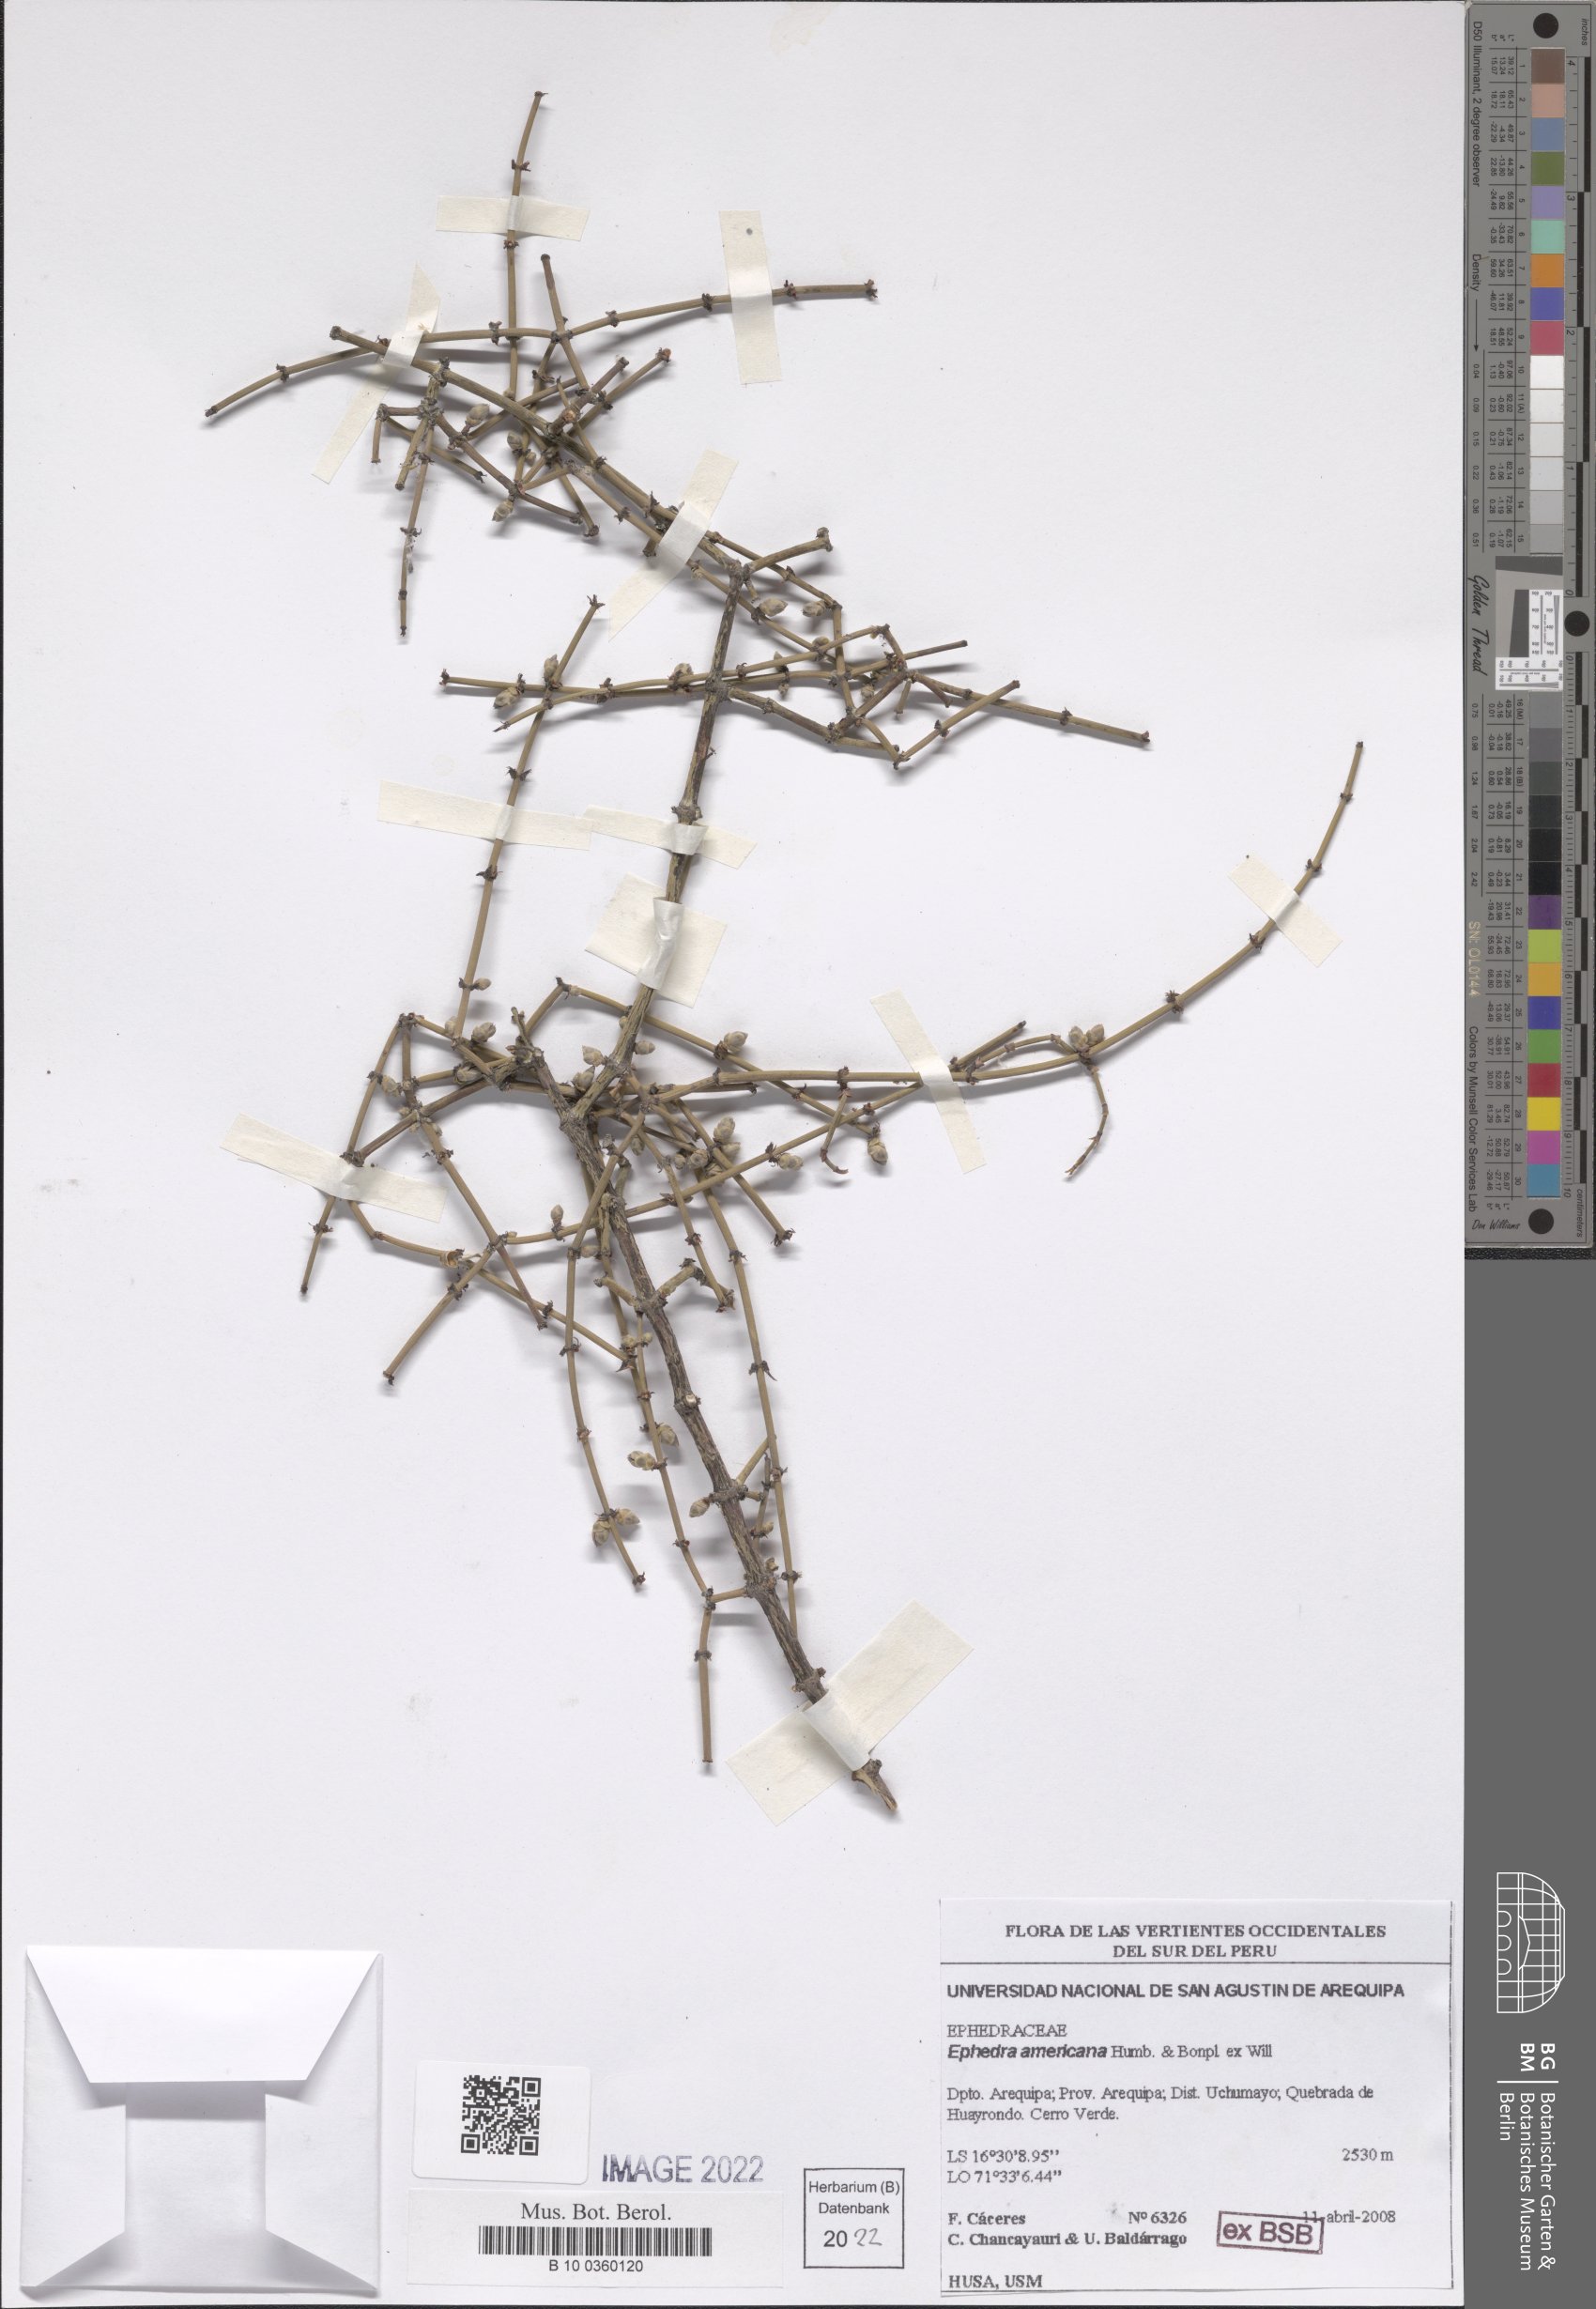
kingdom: Plantae
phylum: Tracheophyta
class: Gnetopsida
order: Ephedrales
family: Ephedraceae
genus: Ephedra
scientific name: Ephedra americana
